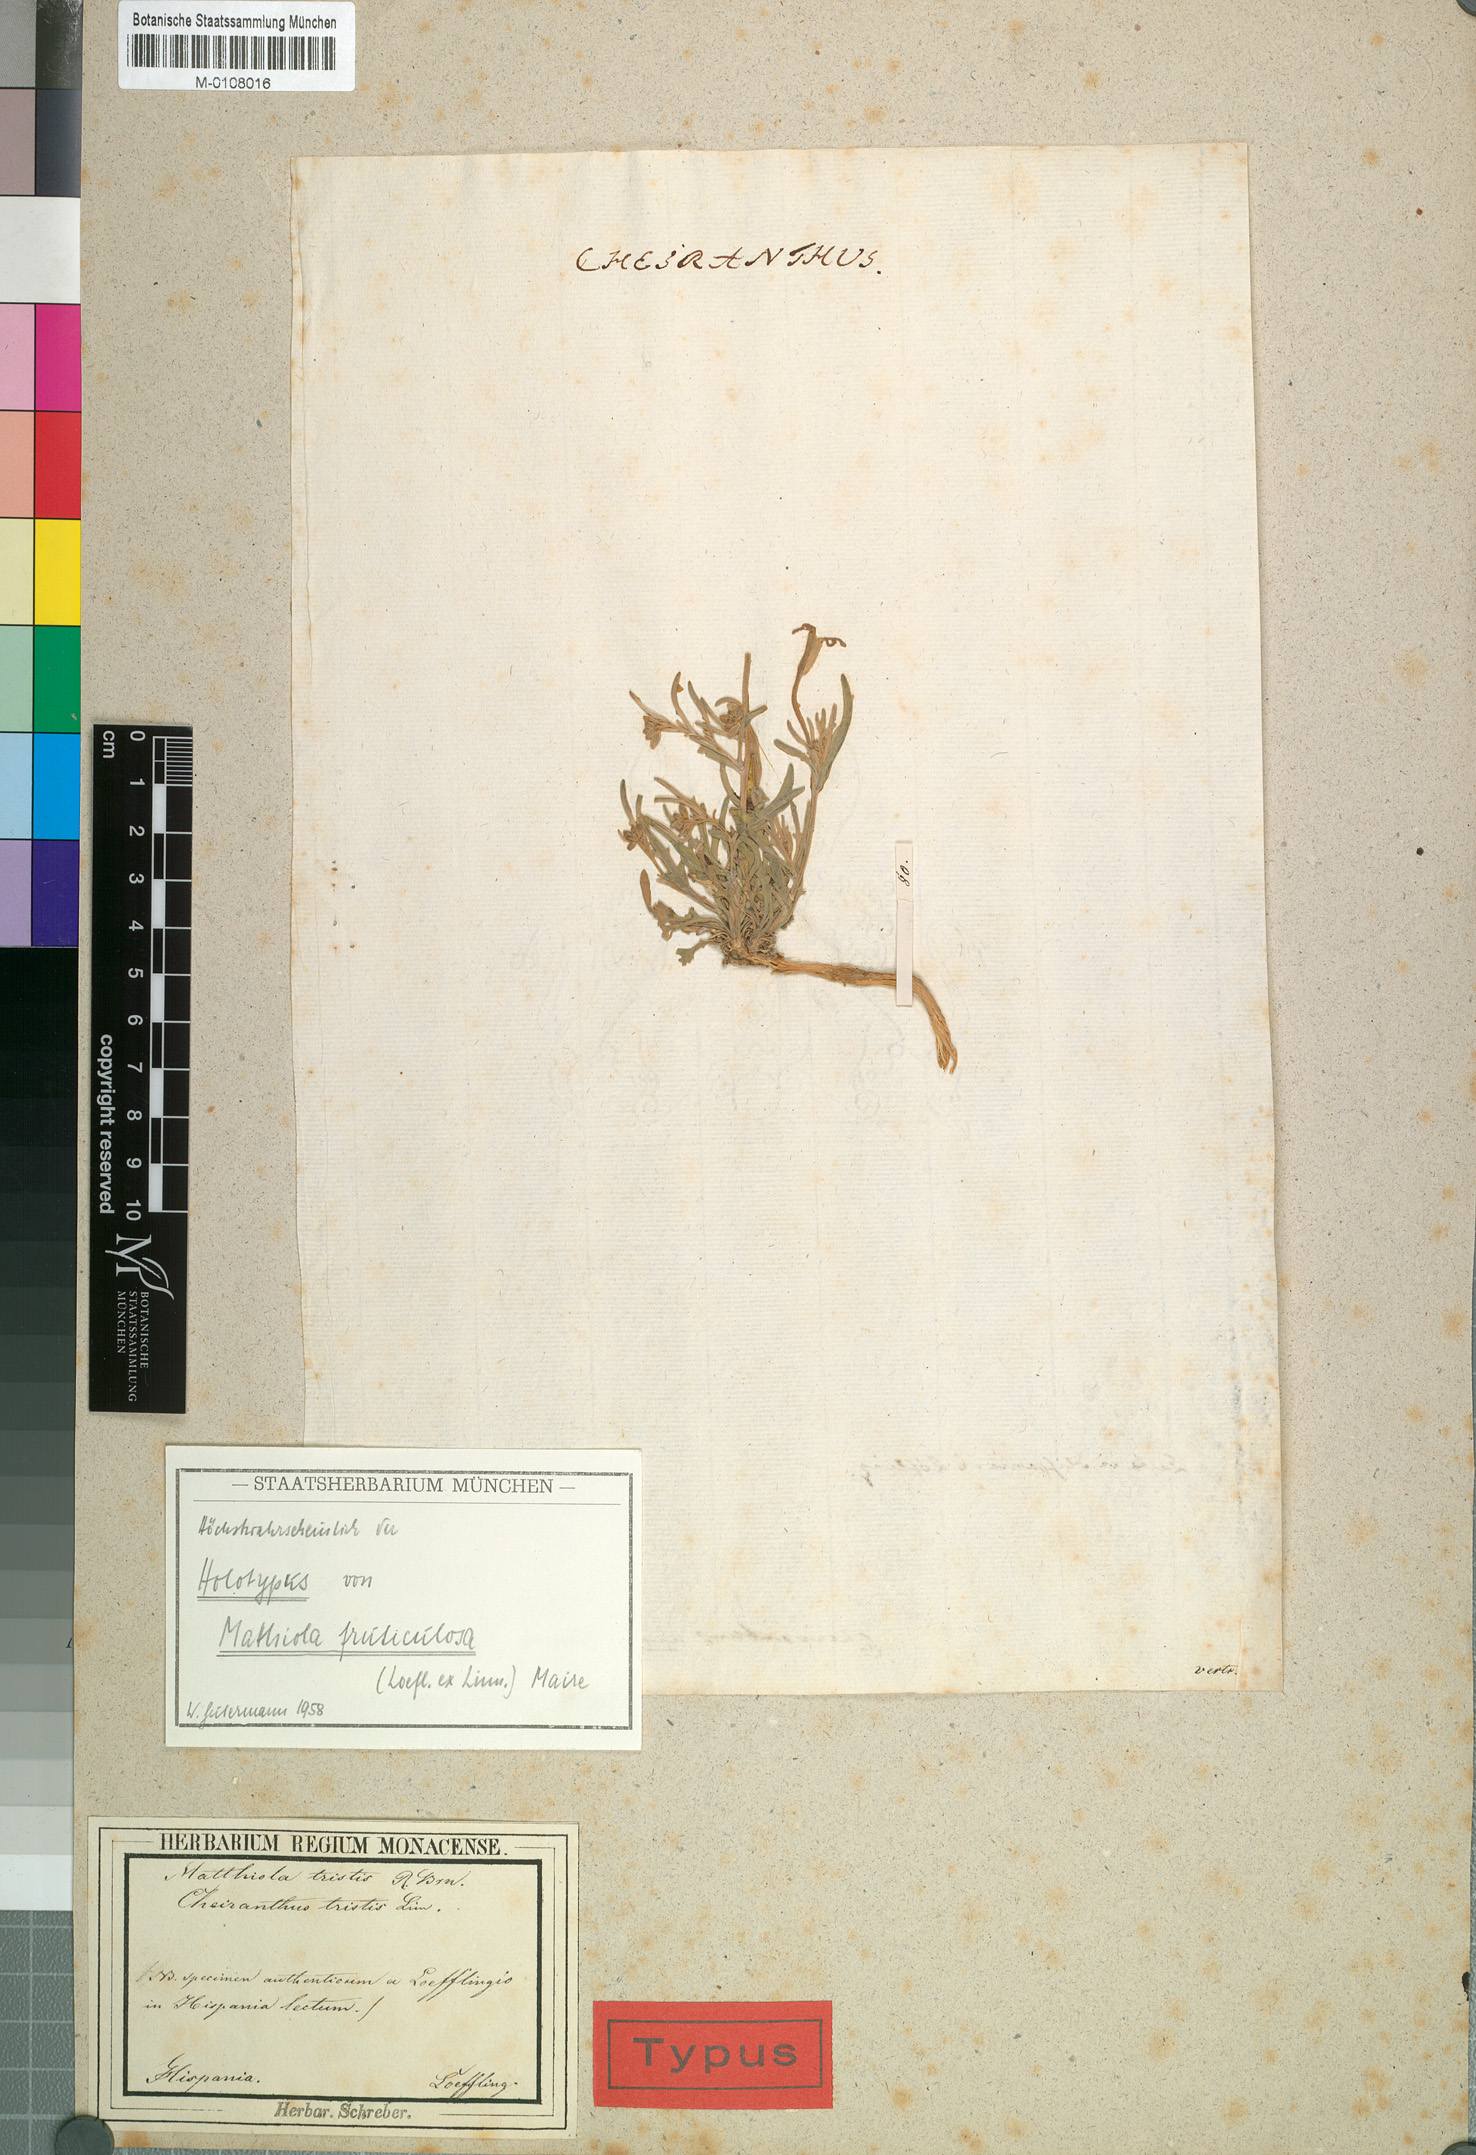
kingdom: Plantae
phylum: Tracheophyta
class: Magnoliopsida
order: Brassicales
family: Brassicaceae
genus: Matthiola
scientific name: Matthiola fruticulosa
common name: Sad stock
